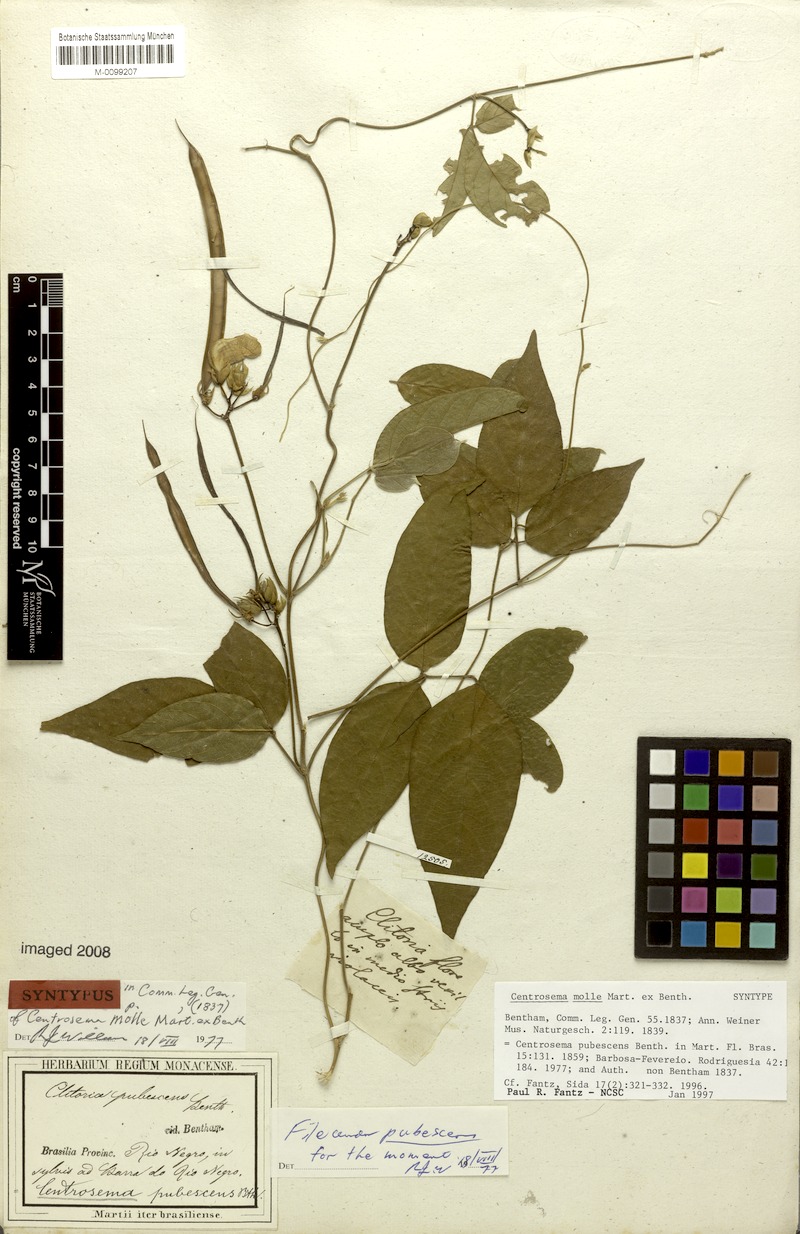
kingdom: Plantae
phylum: Tracheophyta
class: Magnoliopsida
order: Fabales
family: Fabaceae
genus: Centrosema
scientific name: Centrosema molle
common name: Soft butterfly pea
